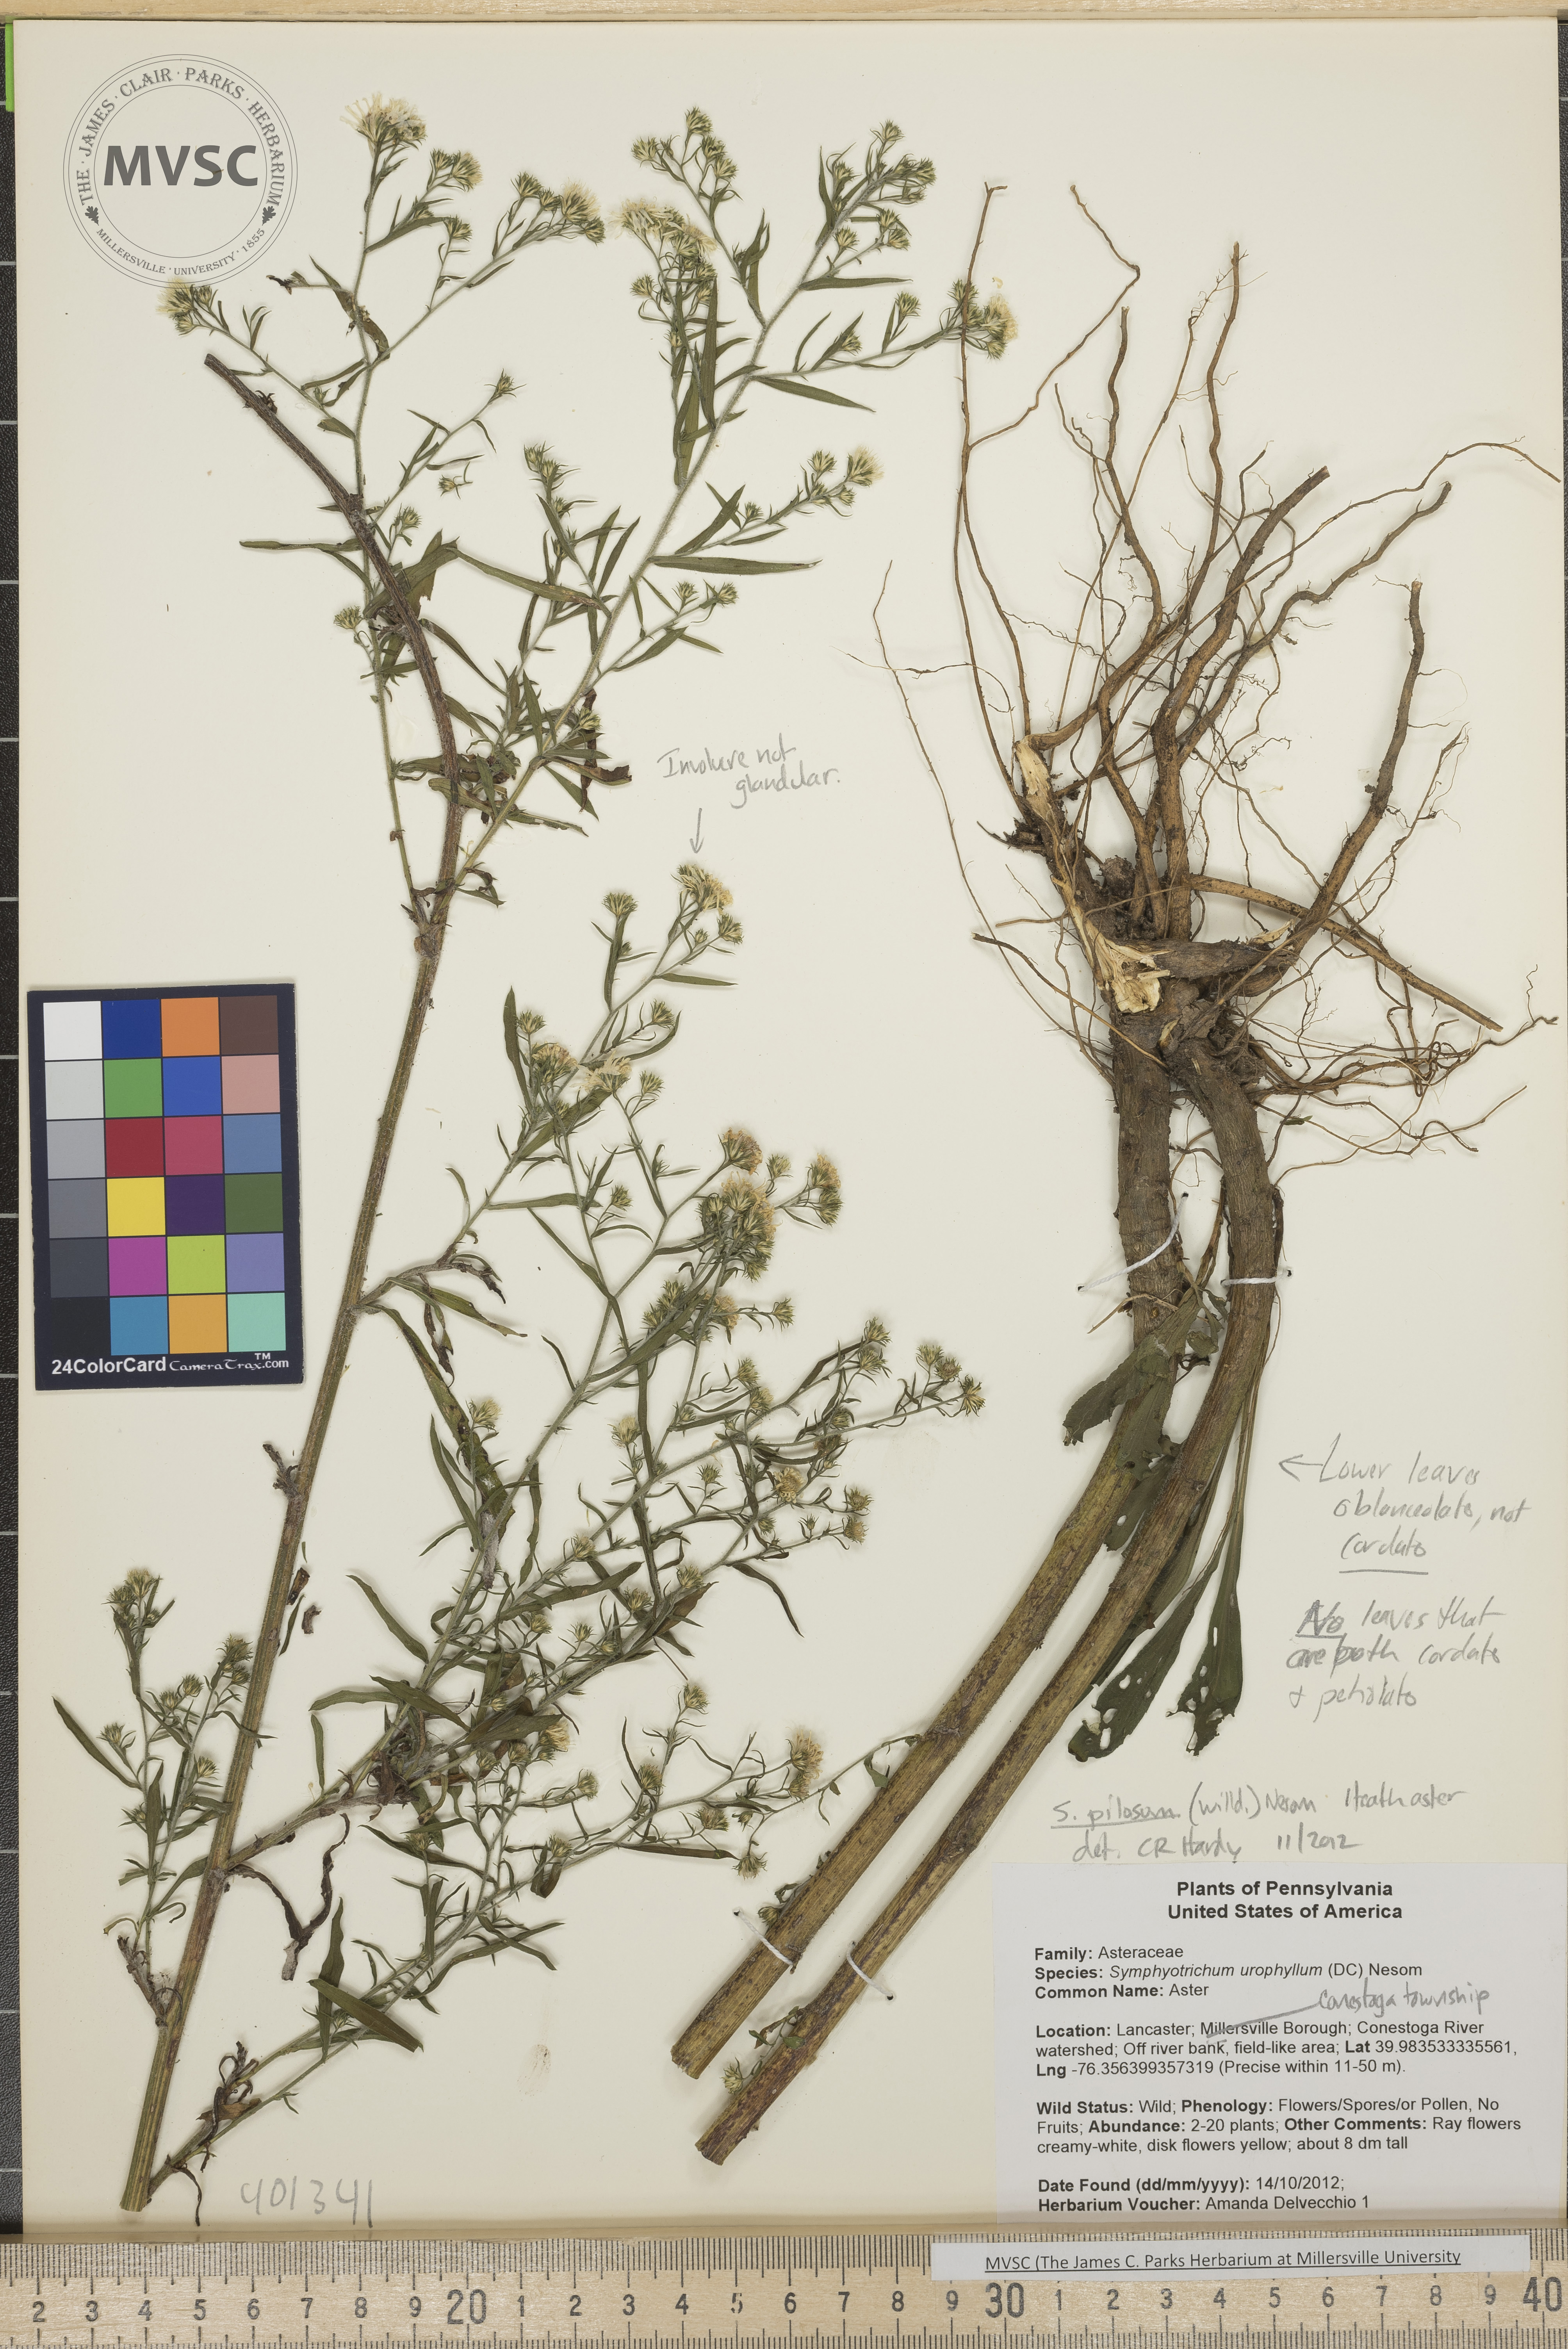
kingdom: Plantae
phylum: Tracheophyta
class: Magnoliopsida
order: Asterales
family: Asteraceae
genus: Symphyotrichum
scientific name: Symphyotrichum pilosum
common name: Heath aster
